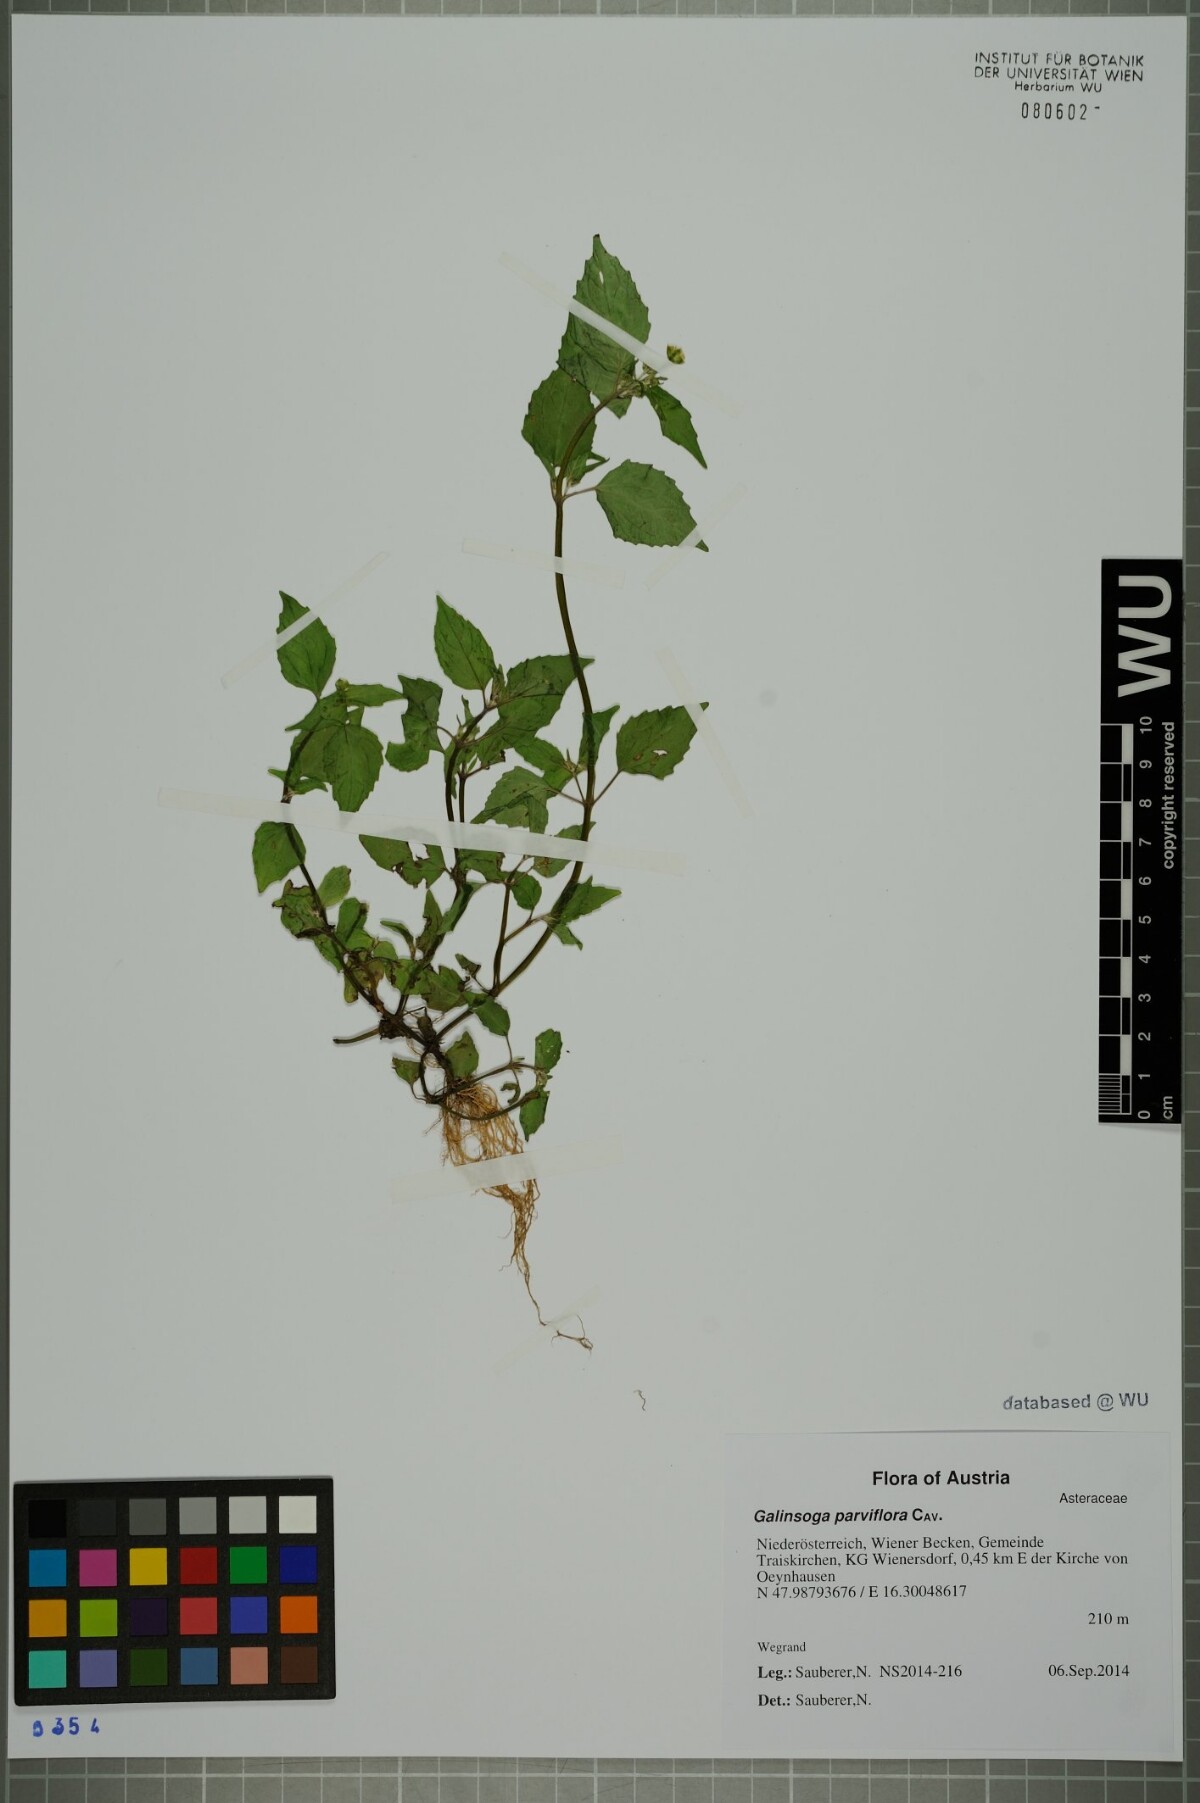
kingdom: Plantae
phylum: Tracheophyta
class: Magnoliopsida
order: Asterales
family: Asteraceae
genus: Galinsoga
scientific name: Galinsoga parviflora
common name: Gallant soldier
